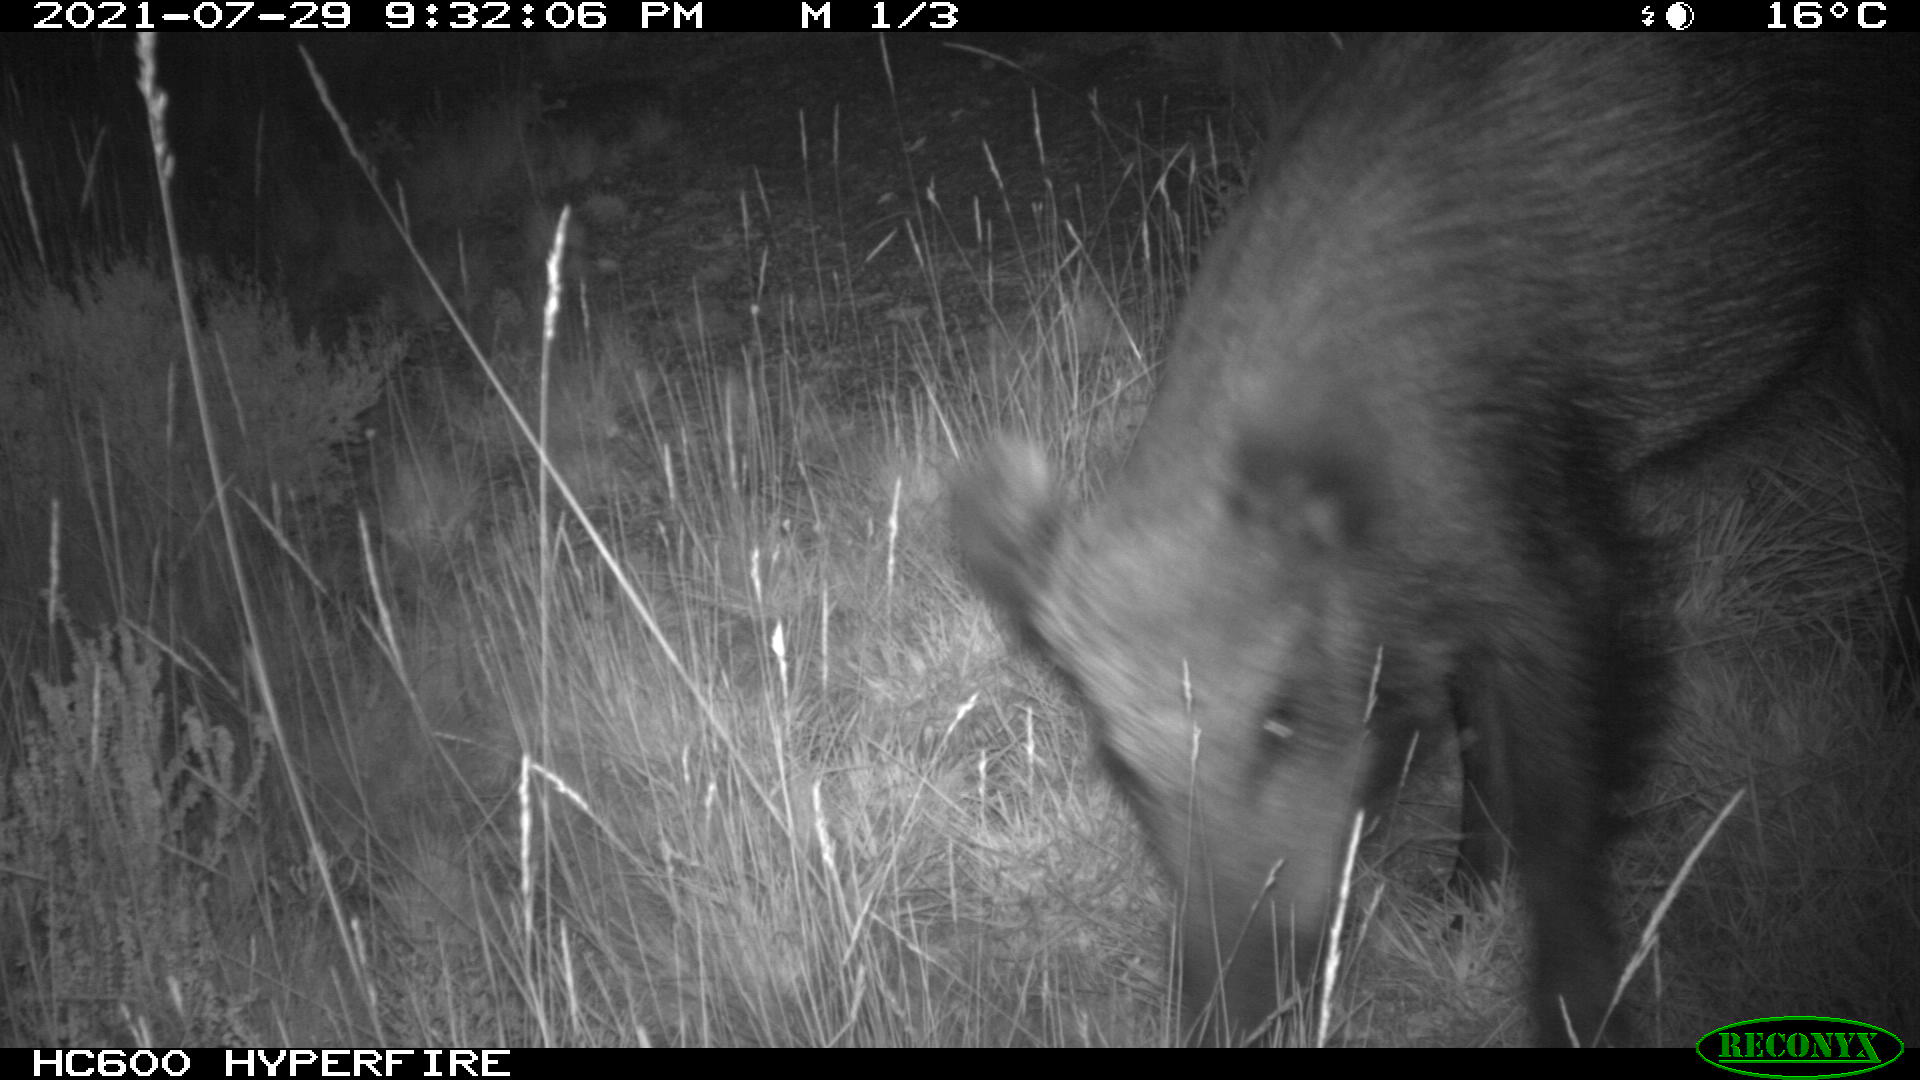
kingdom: Animalia
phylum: Chordata
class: Mammalia
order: Artiodactyla
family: Suidae
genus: Sus
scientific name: Sus scrofa
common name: Wild boar
